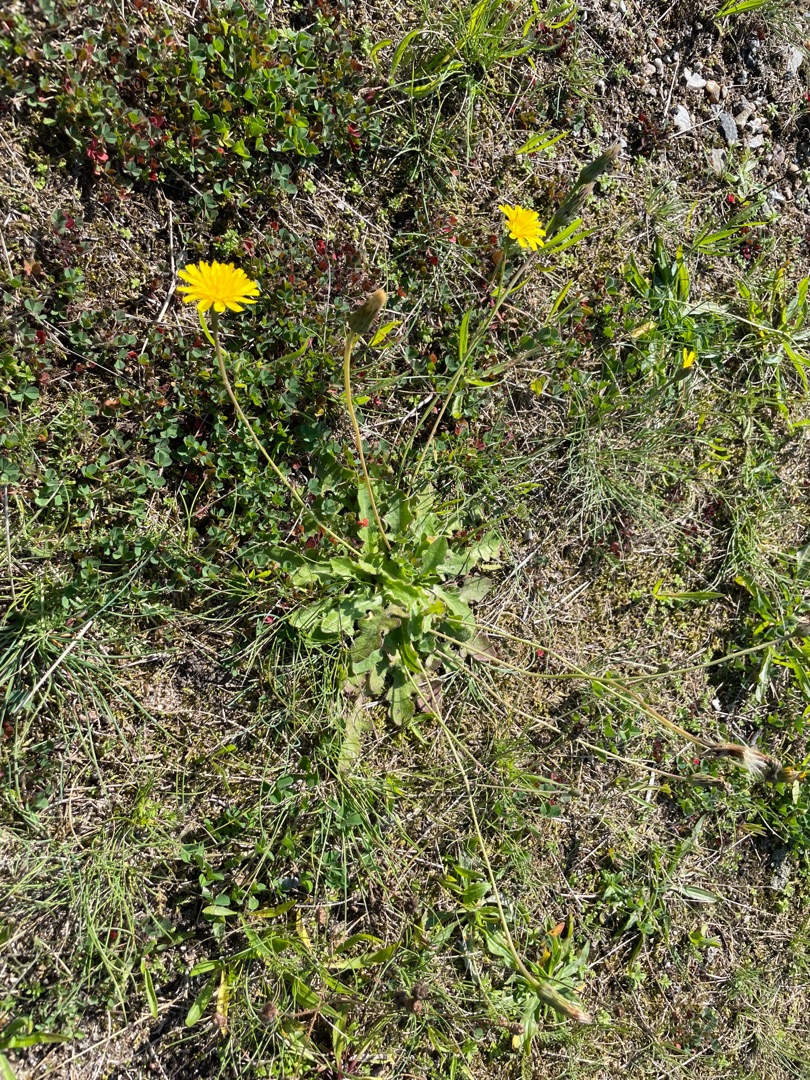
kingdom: Plantae
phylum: Tracheophyta
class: Magnoliopsida
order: Asterales
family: Asteraceae
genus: Hypochaeris
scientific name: Hypochaeris radicata
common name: Almindelig kongepen
